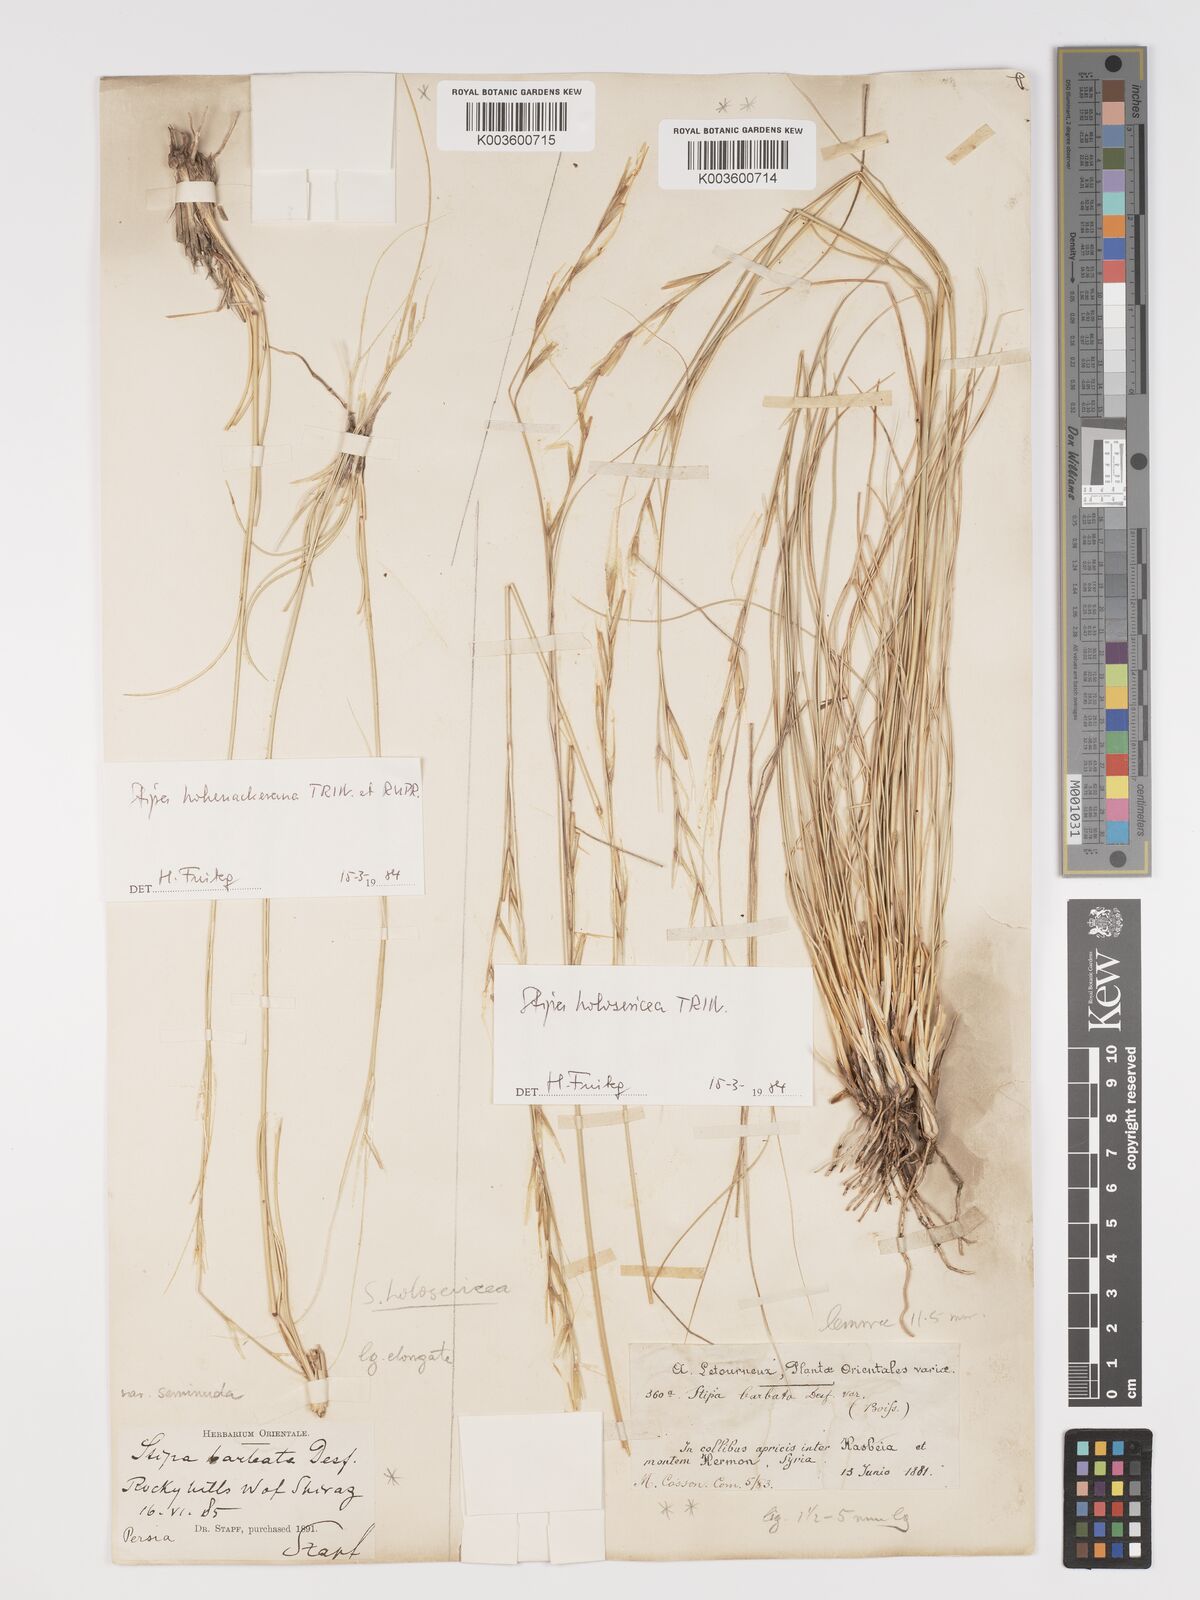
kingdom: Plantae
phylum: Tracheophyta
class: Liliopsida
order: Poales
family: Poaceae
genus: Stipa
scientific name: Stipa holosericea
